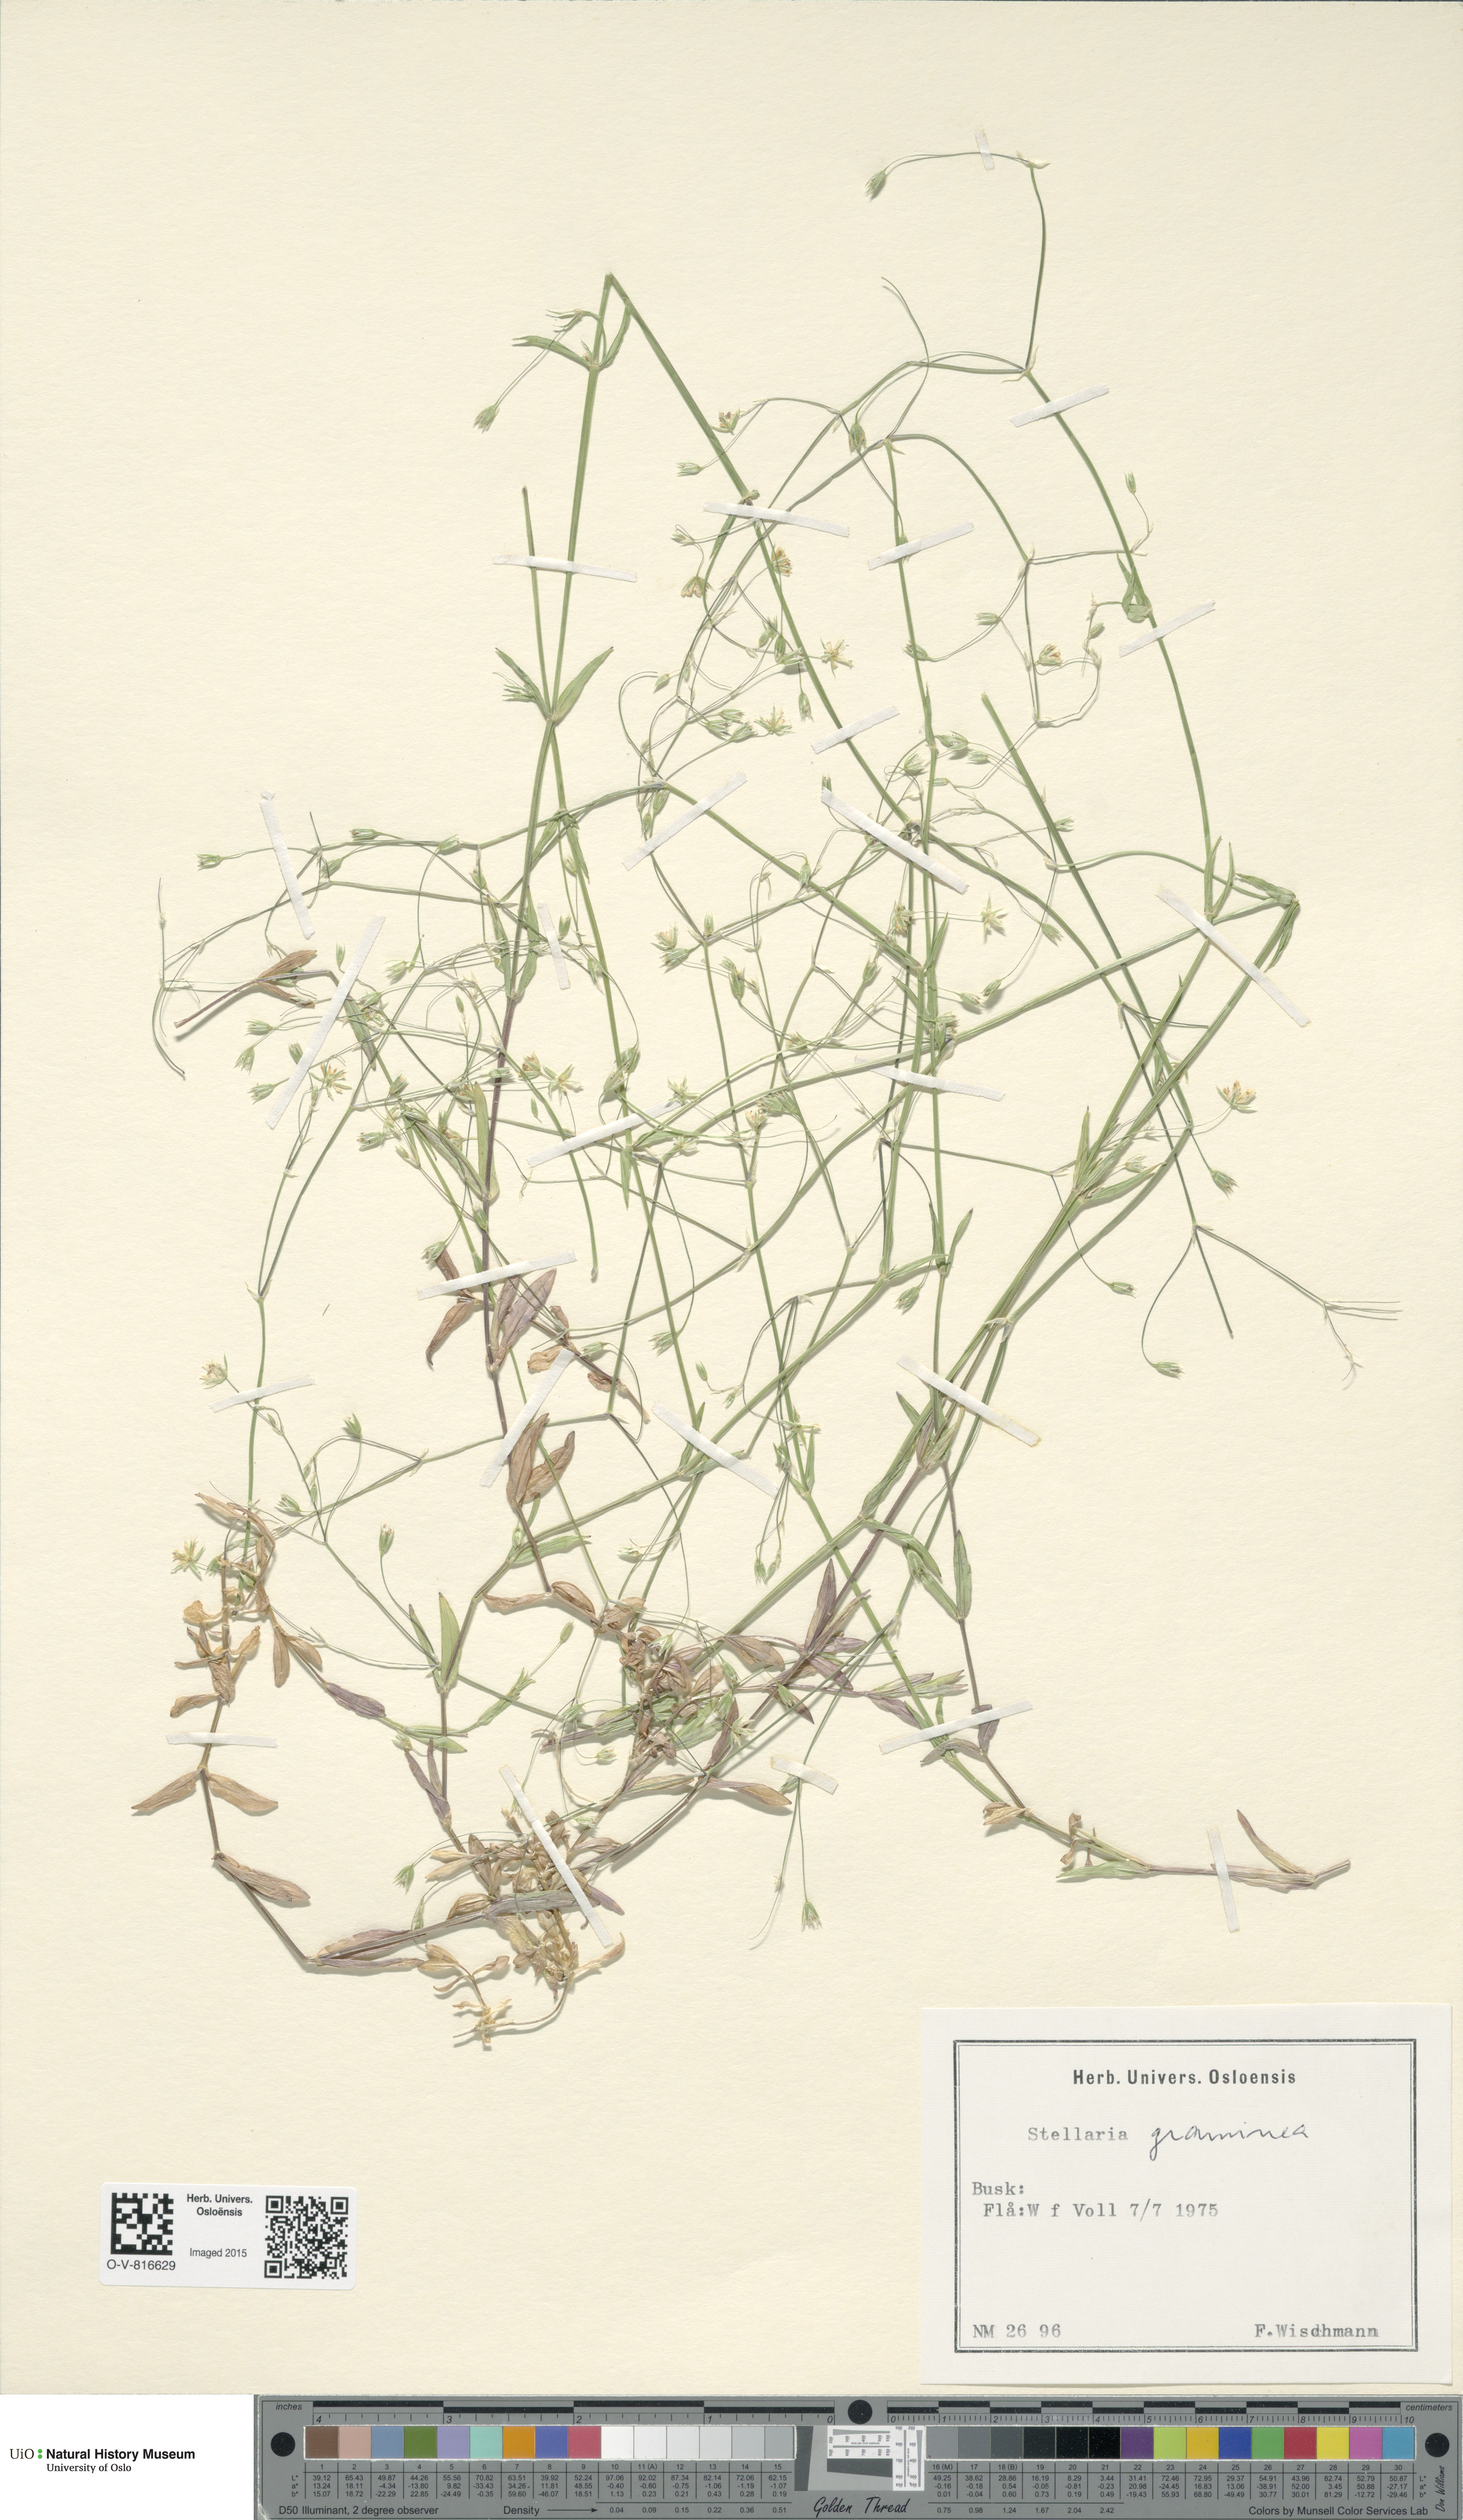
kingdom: Plantae
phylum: Tracheophyta
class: Magnoliopsida
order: Caryophyllales
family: Caryophyllaceae
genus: Stellaria
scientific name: Stellaria graminea
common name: Grass-like starwort
